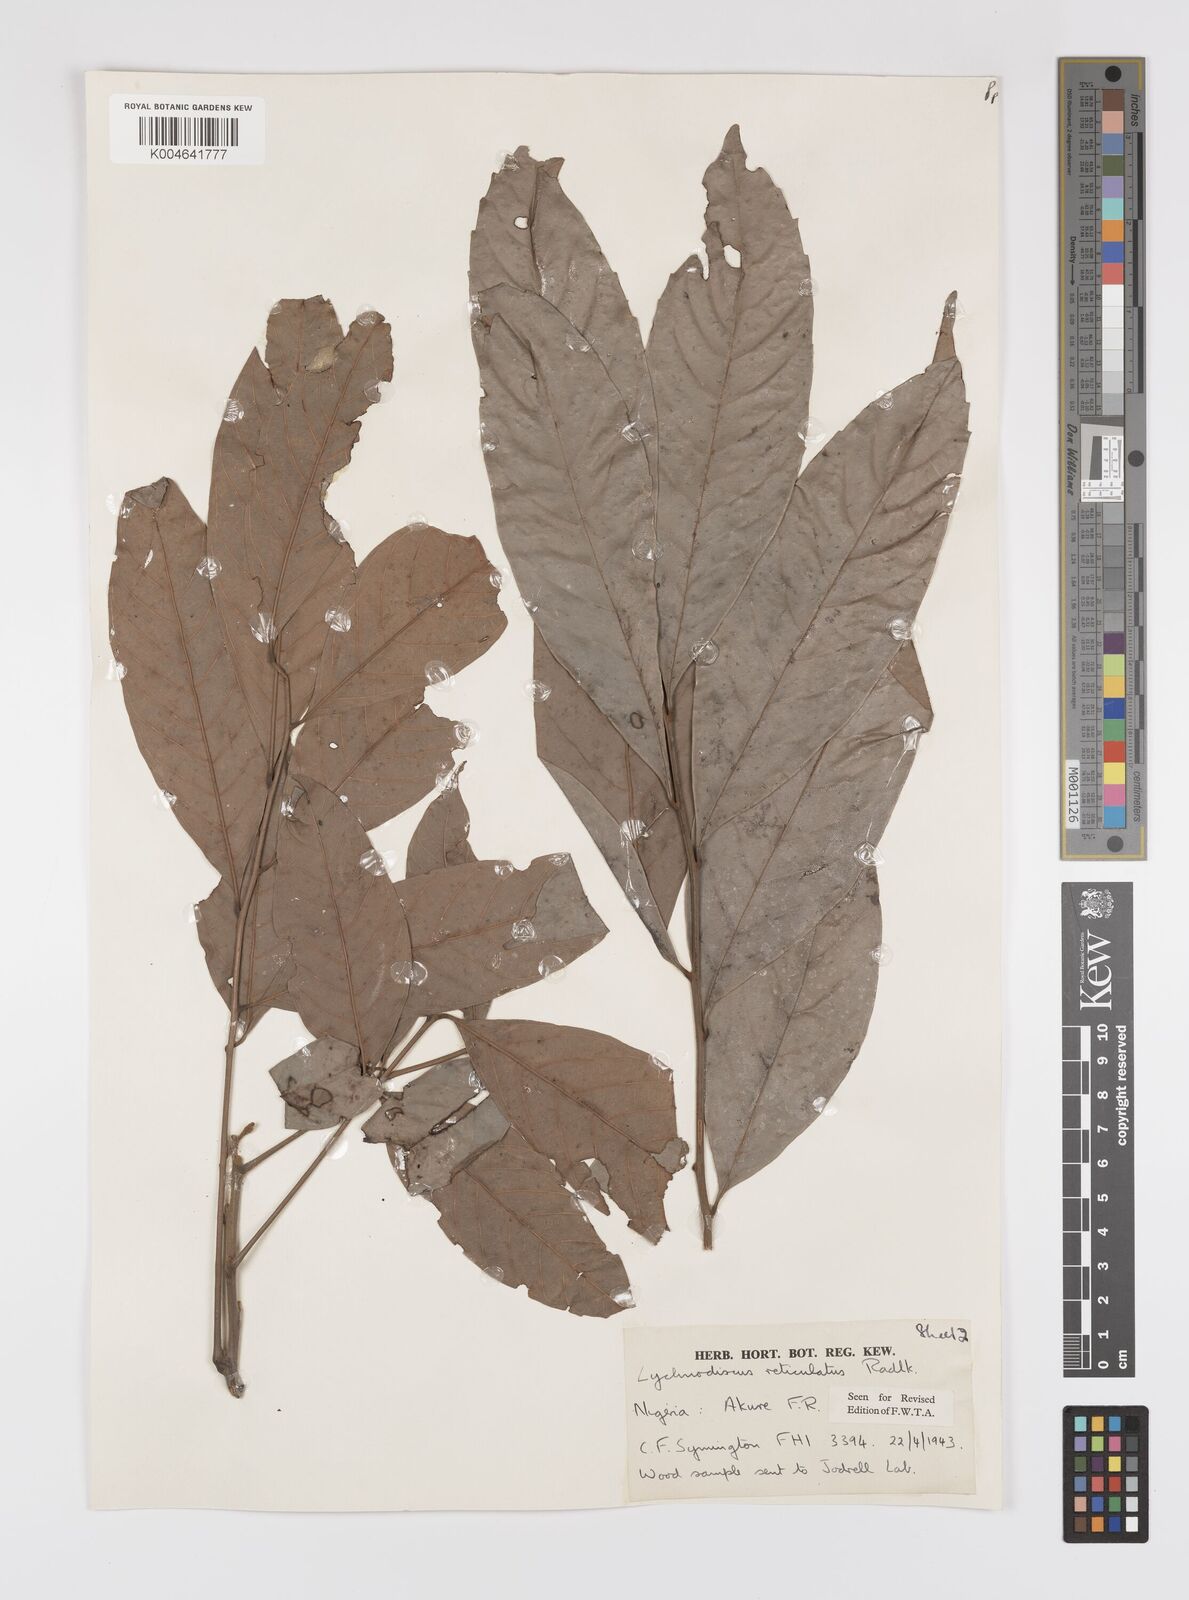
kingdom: Plantae
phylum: Tracheophyta
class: Magnoliopsida
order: Sapindales
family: Sapindaceae
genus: Lychnodiscus
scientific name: Lychnodiscus reticulatus
